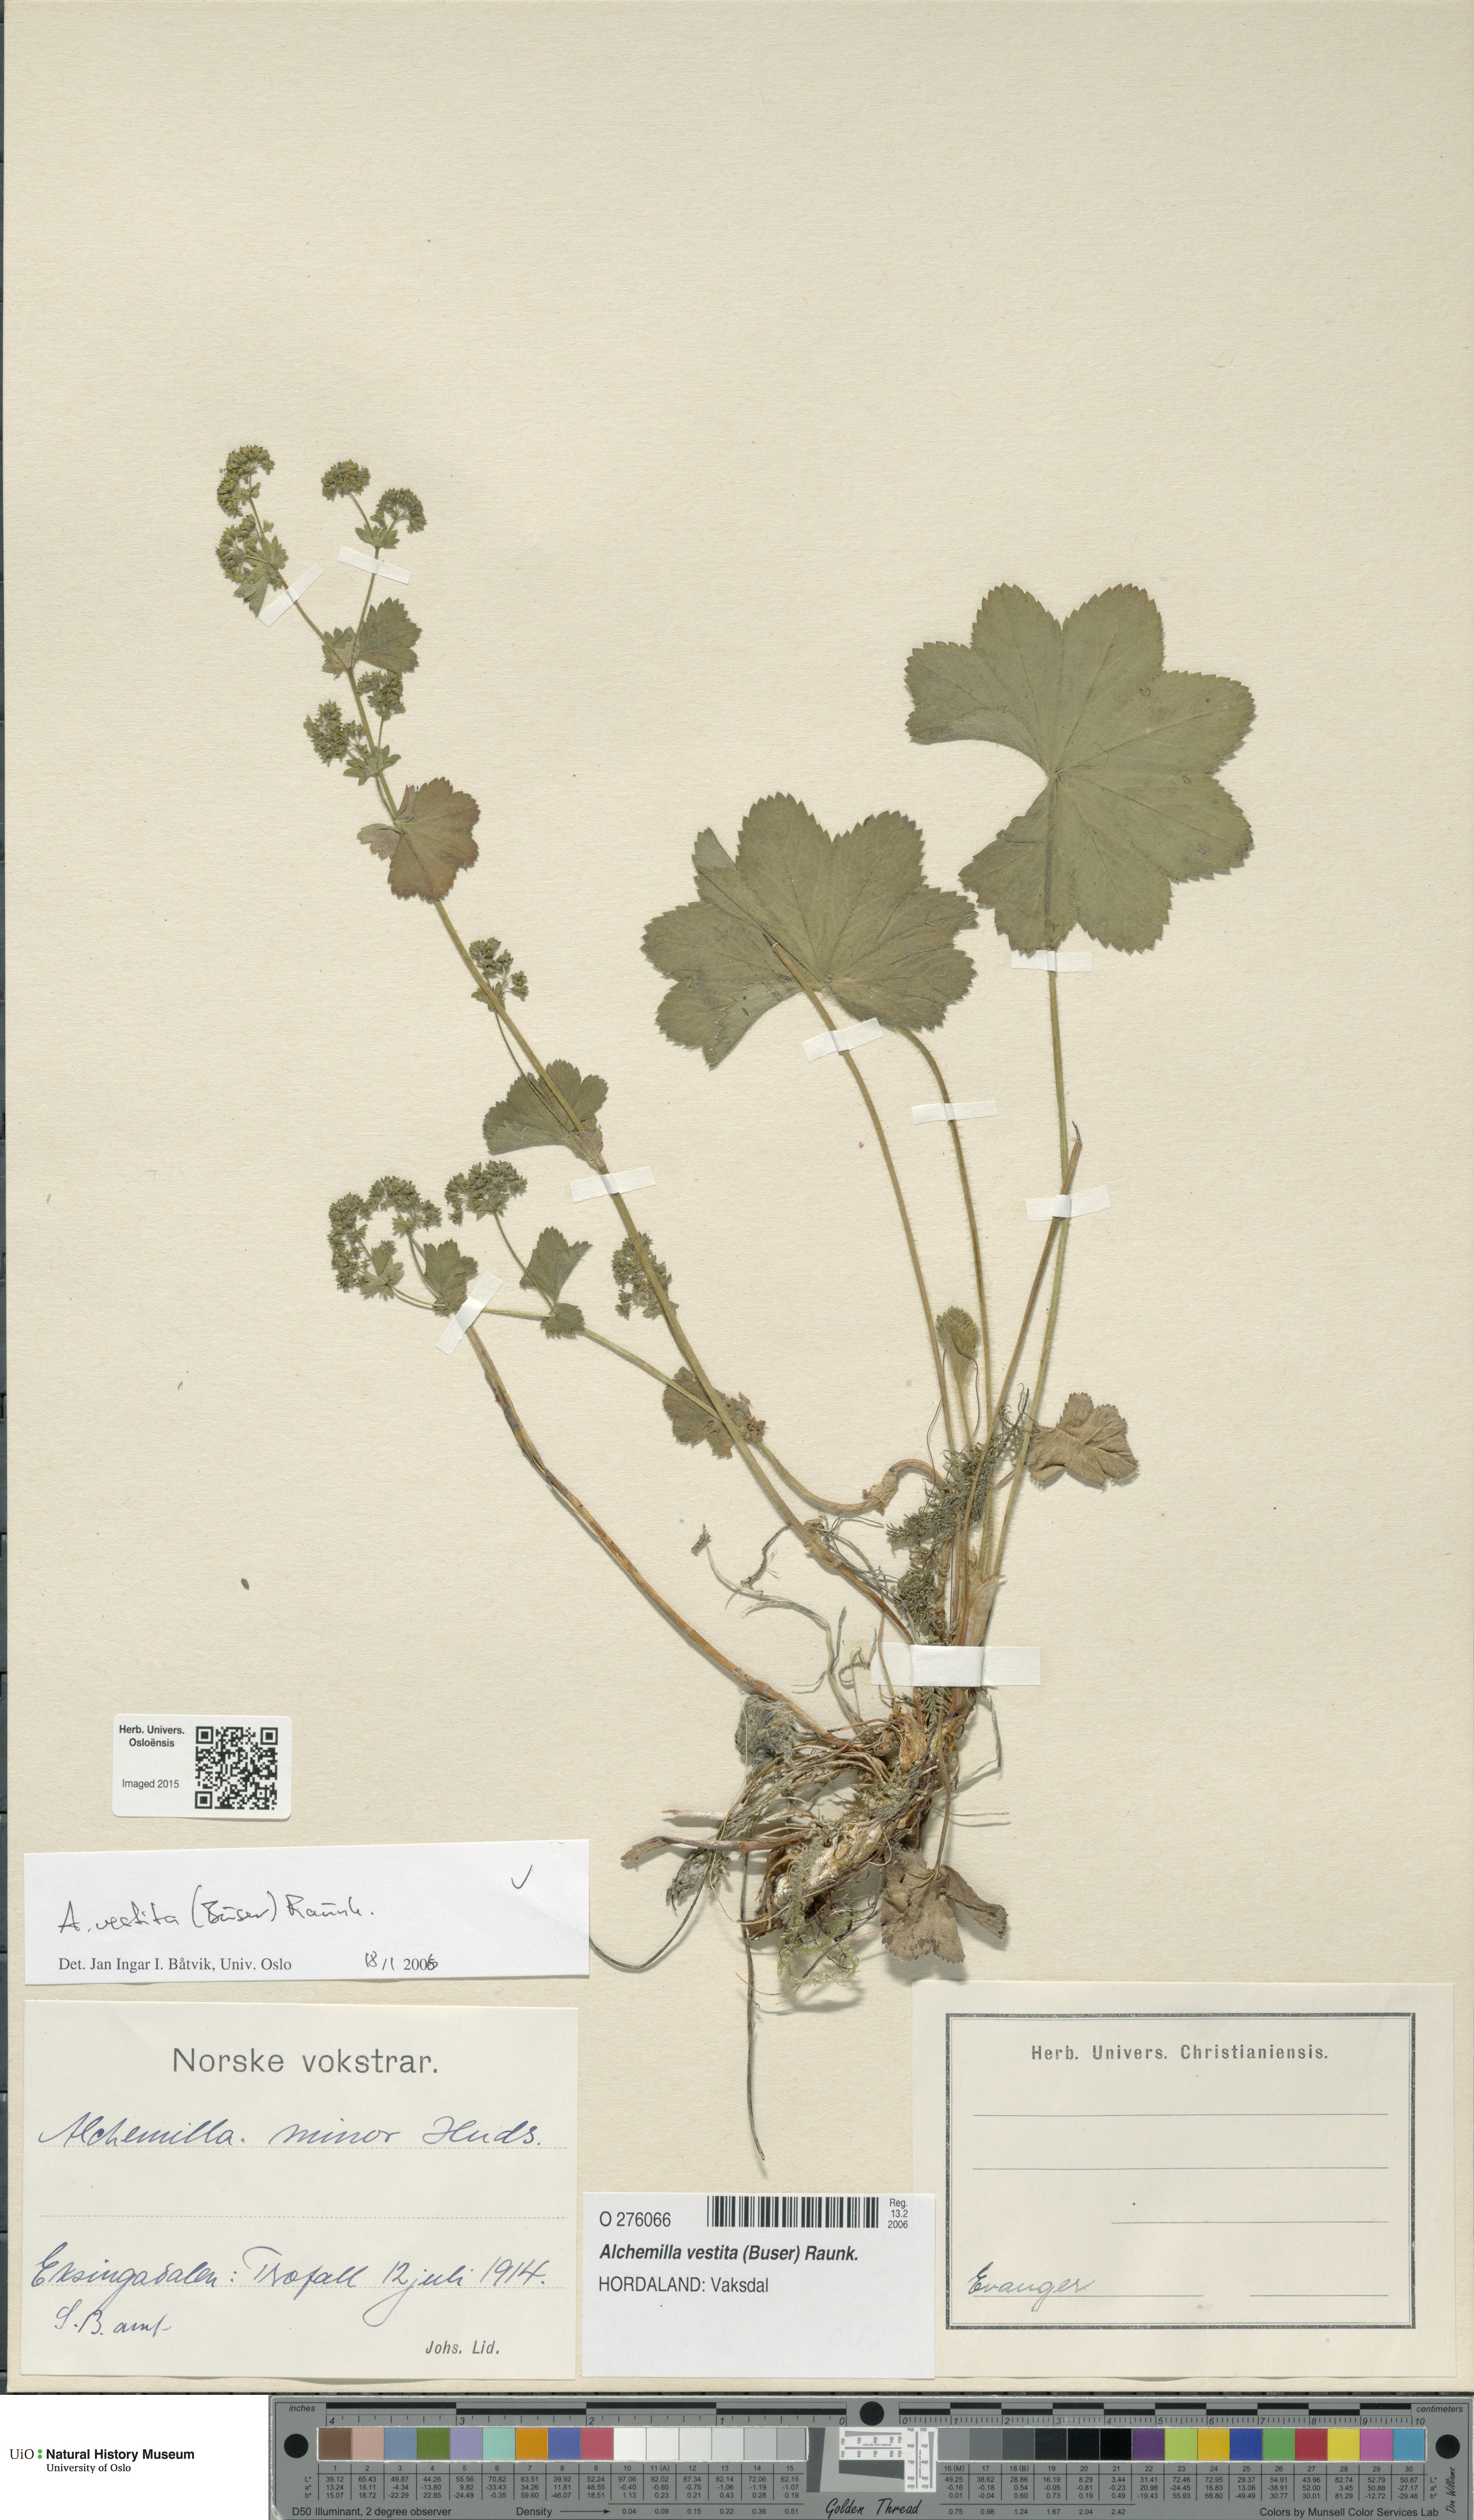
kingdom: Plantae
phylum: Tracheophyta
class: Magnoliopsida
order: Rosales
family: Rosaceae
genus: Alchemilla
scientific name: Alchemilla filicaulis
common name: Hairy lady's-mantle
